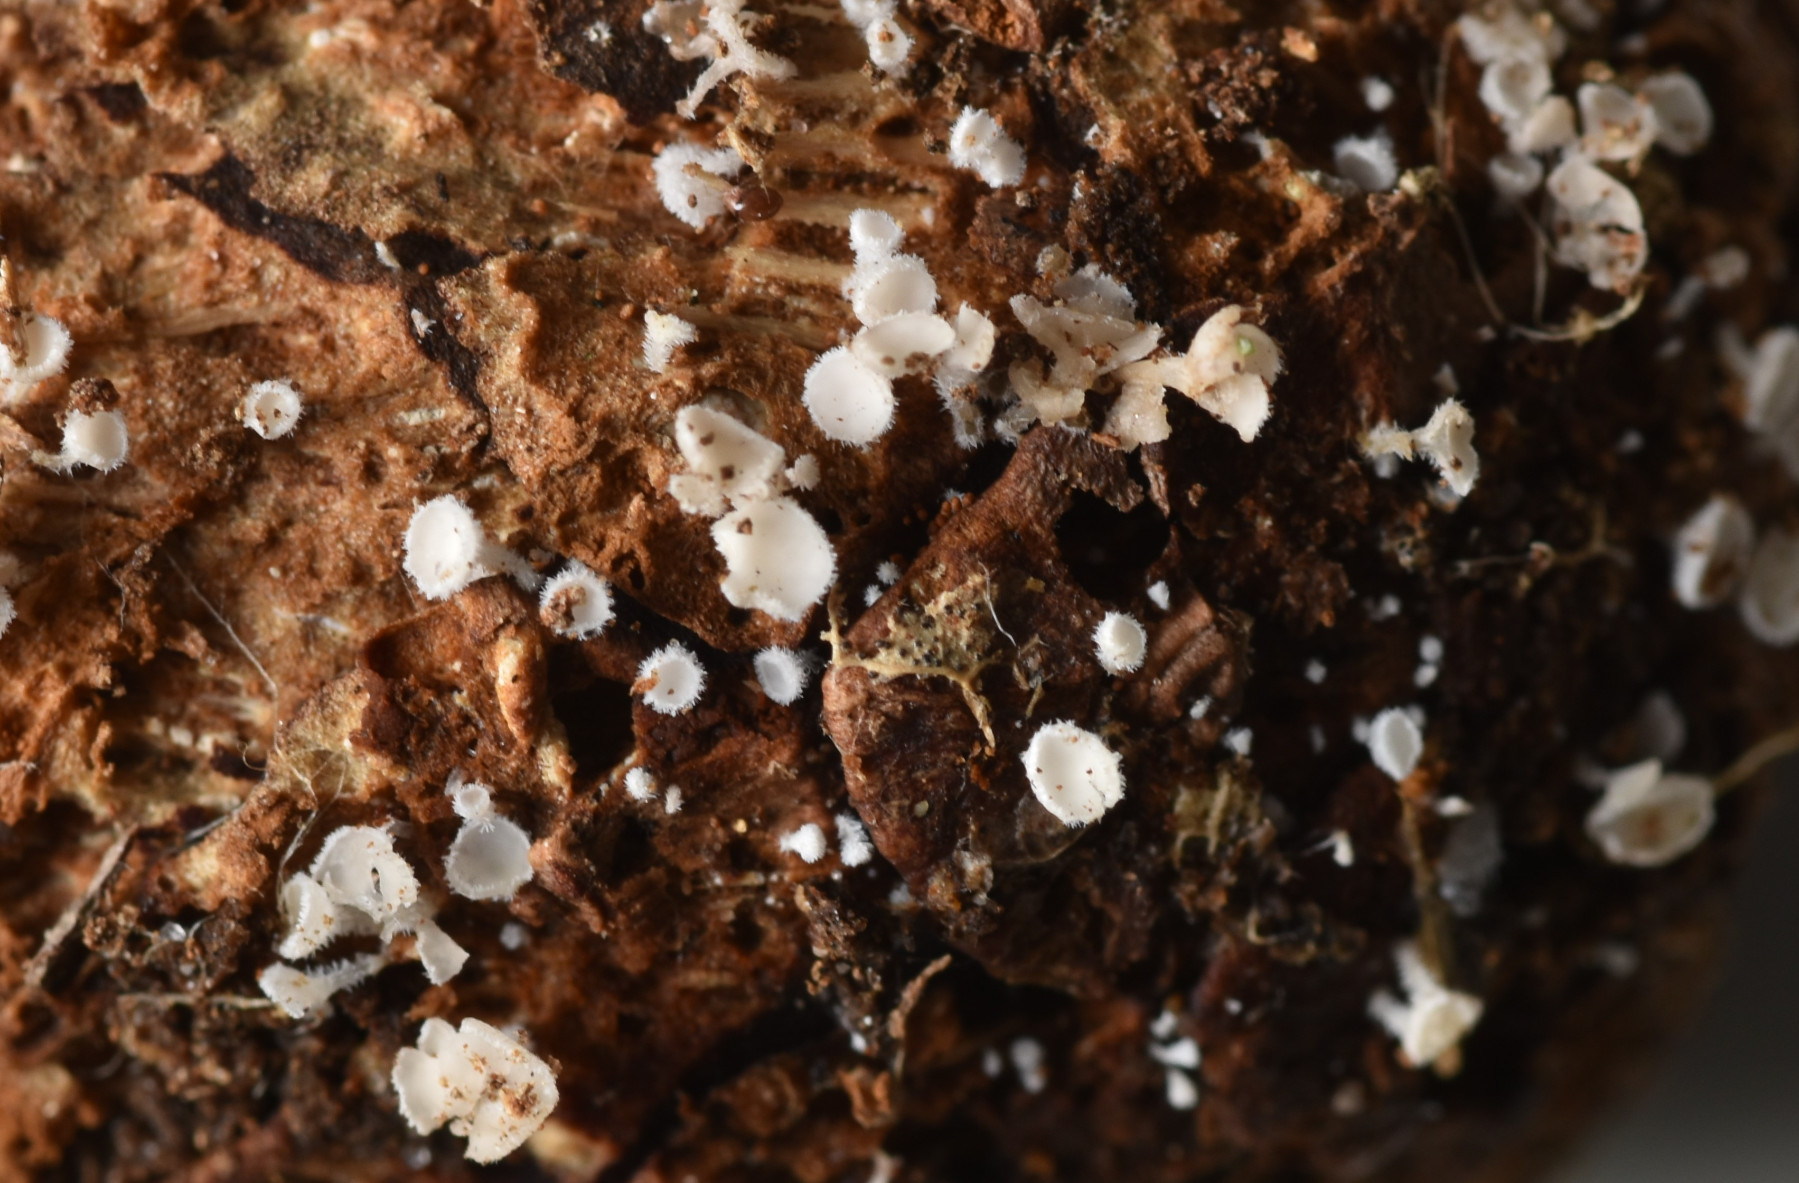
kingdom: Fungi
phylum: Ascomycota
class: Leotiomycetes
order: Helotiales
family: Lachnaceae
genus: Lachnum
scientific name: Lachnum virgineum
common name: jomfru-frynseskive
